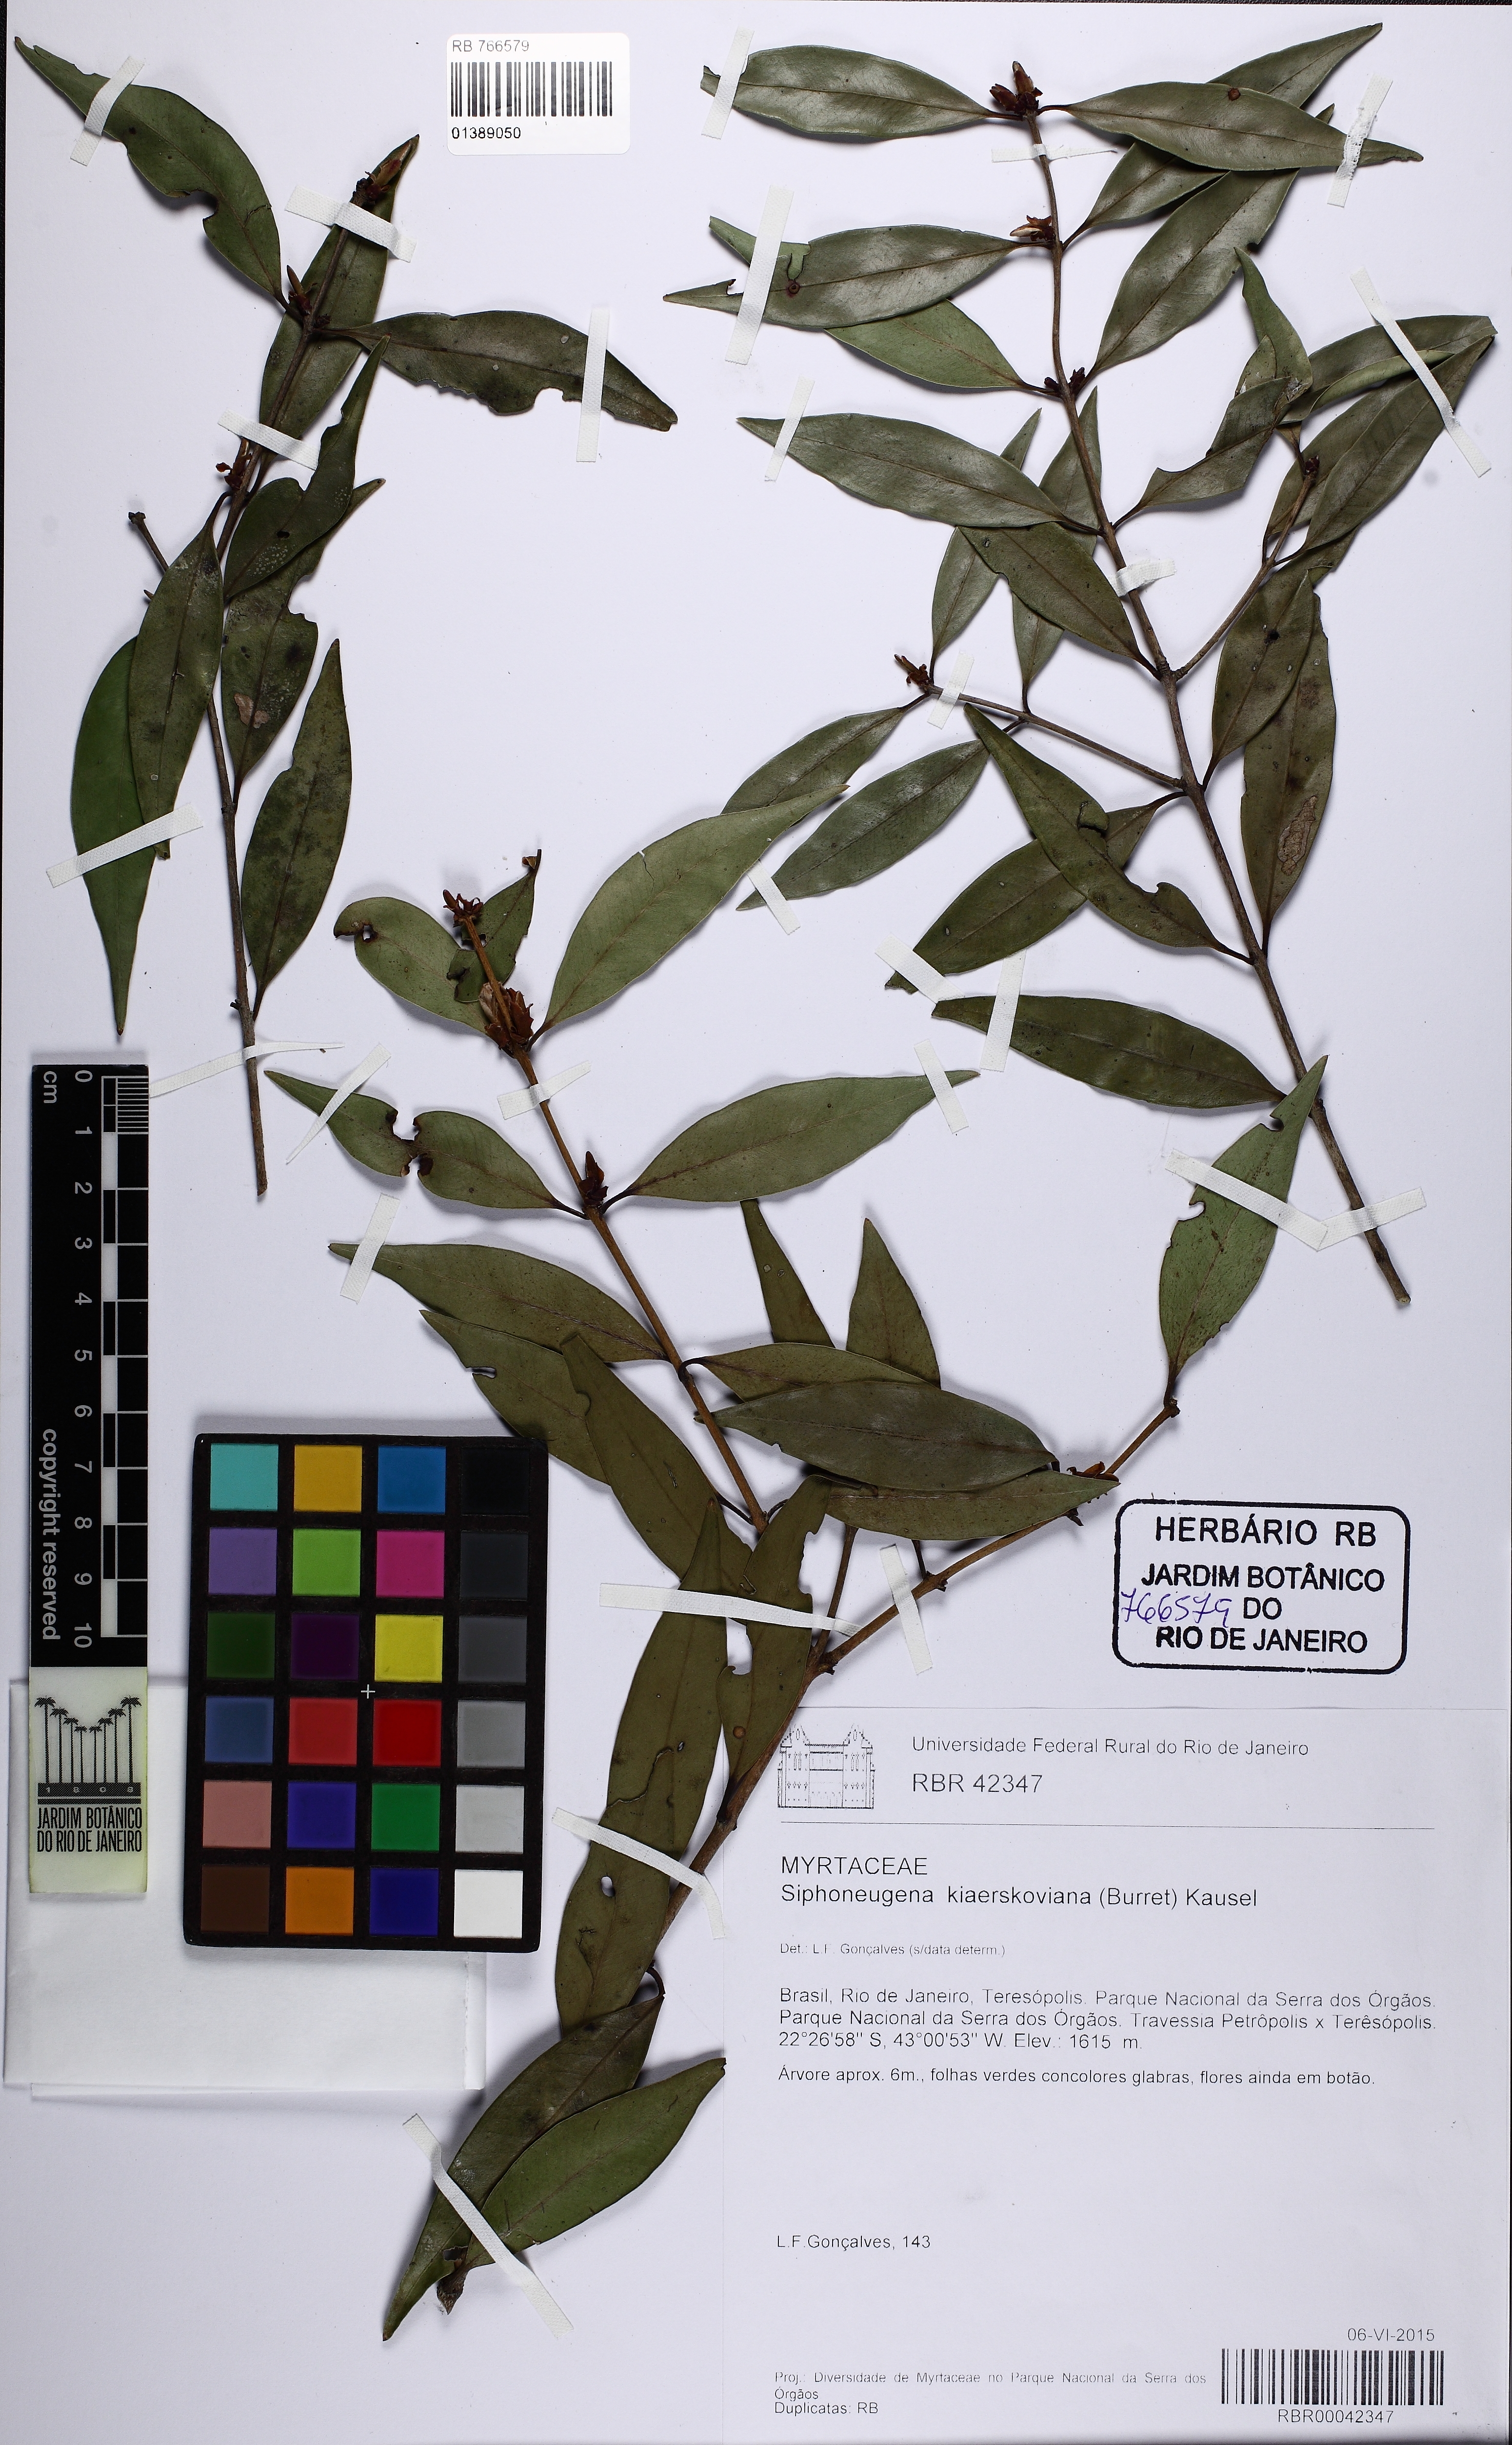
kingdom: Plantae
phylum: Tracheophyta
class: Magnoliopsida
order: Myrtales
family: Myrtaceae
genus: Siphoneugena
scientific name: Siphoneugena kiaerskoviana
